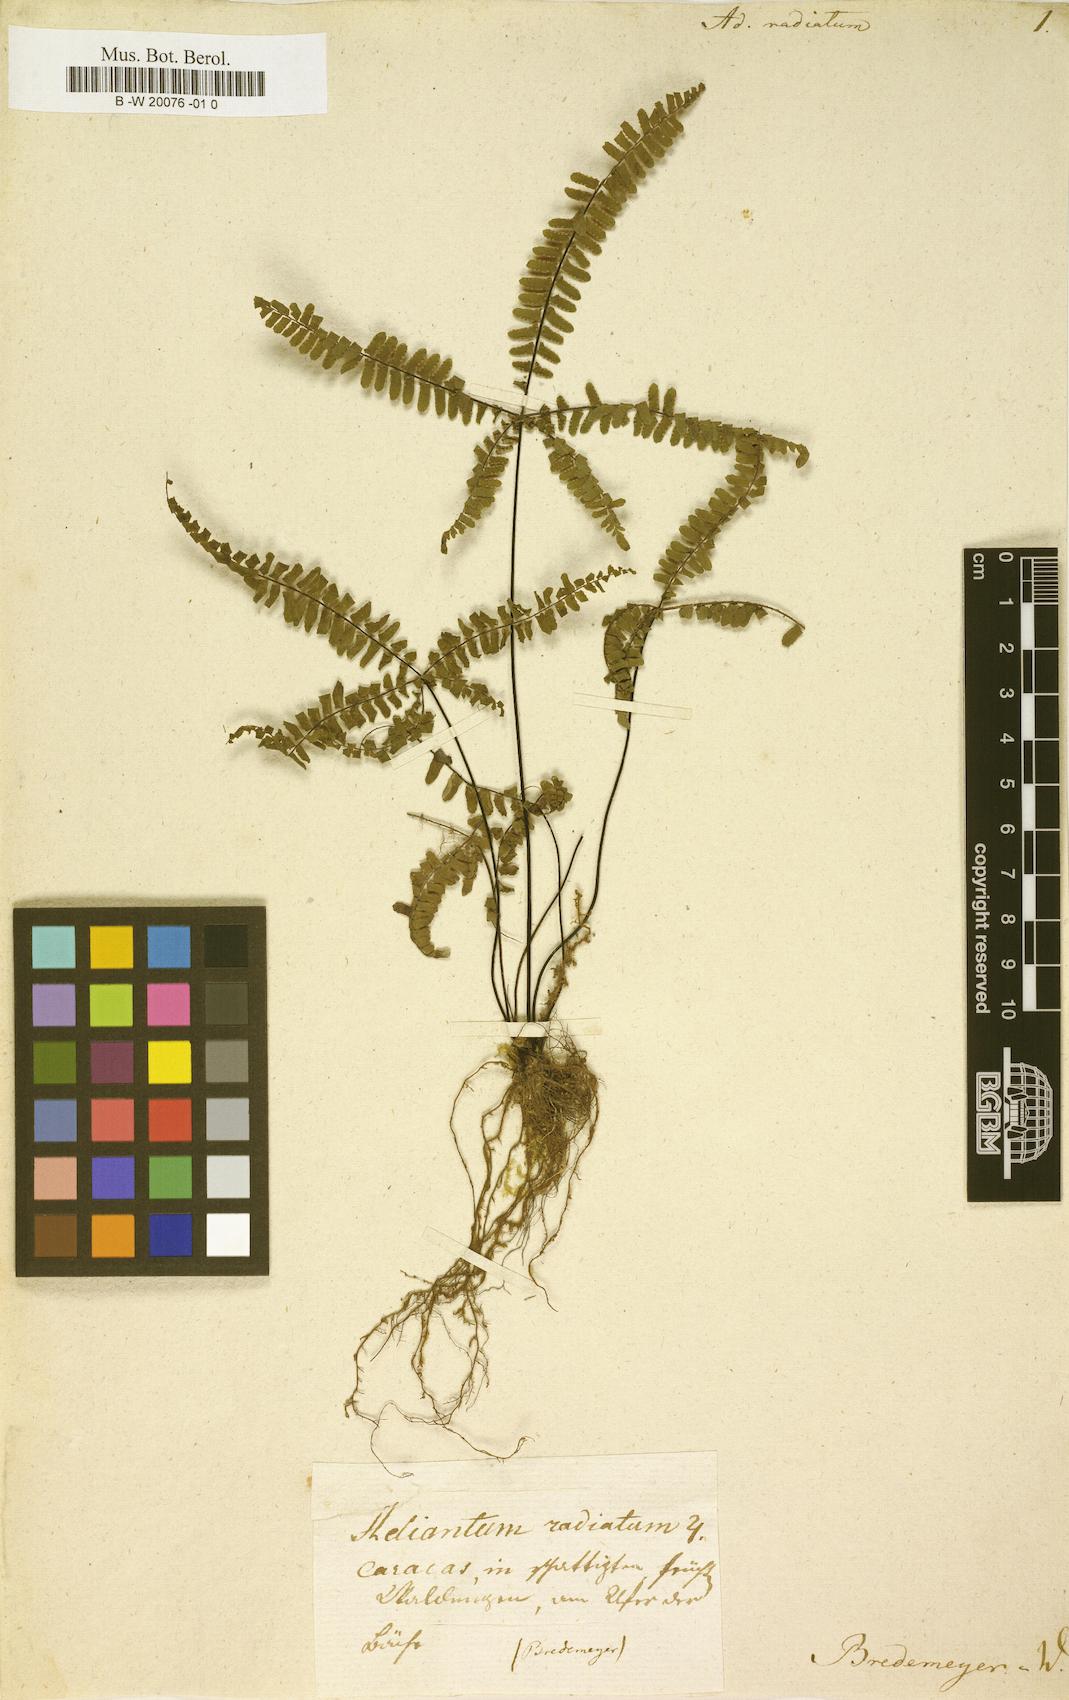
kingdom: Plantae
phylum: Tracheophyta
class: Polypodiopsida
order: Polypodiales
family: Pteridaceae
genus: Adiantopsis
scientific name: Adiantopsis radiata
